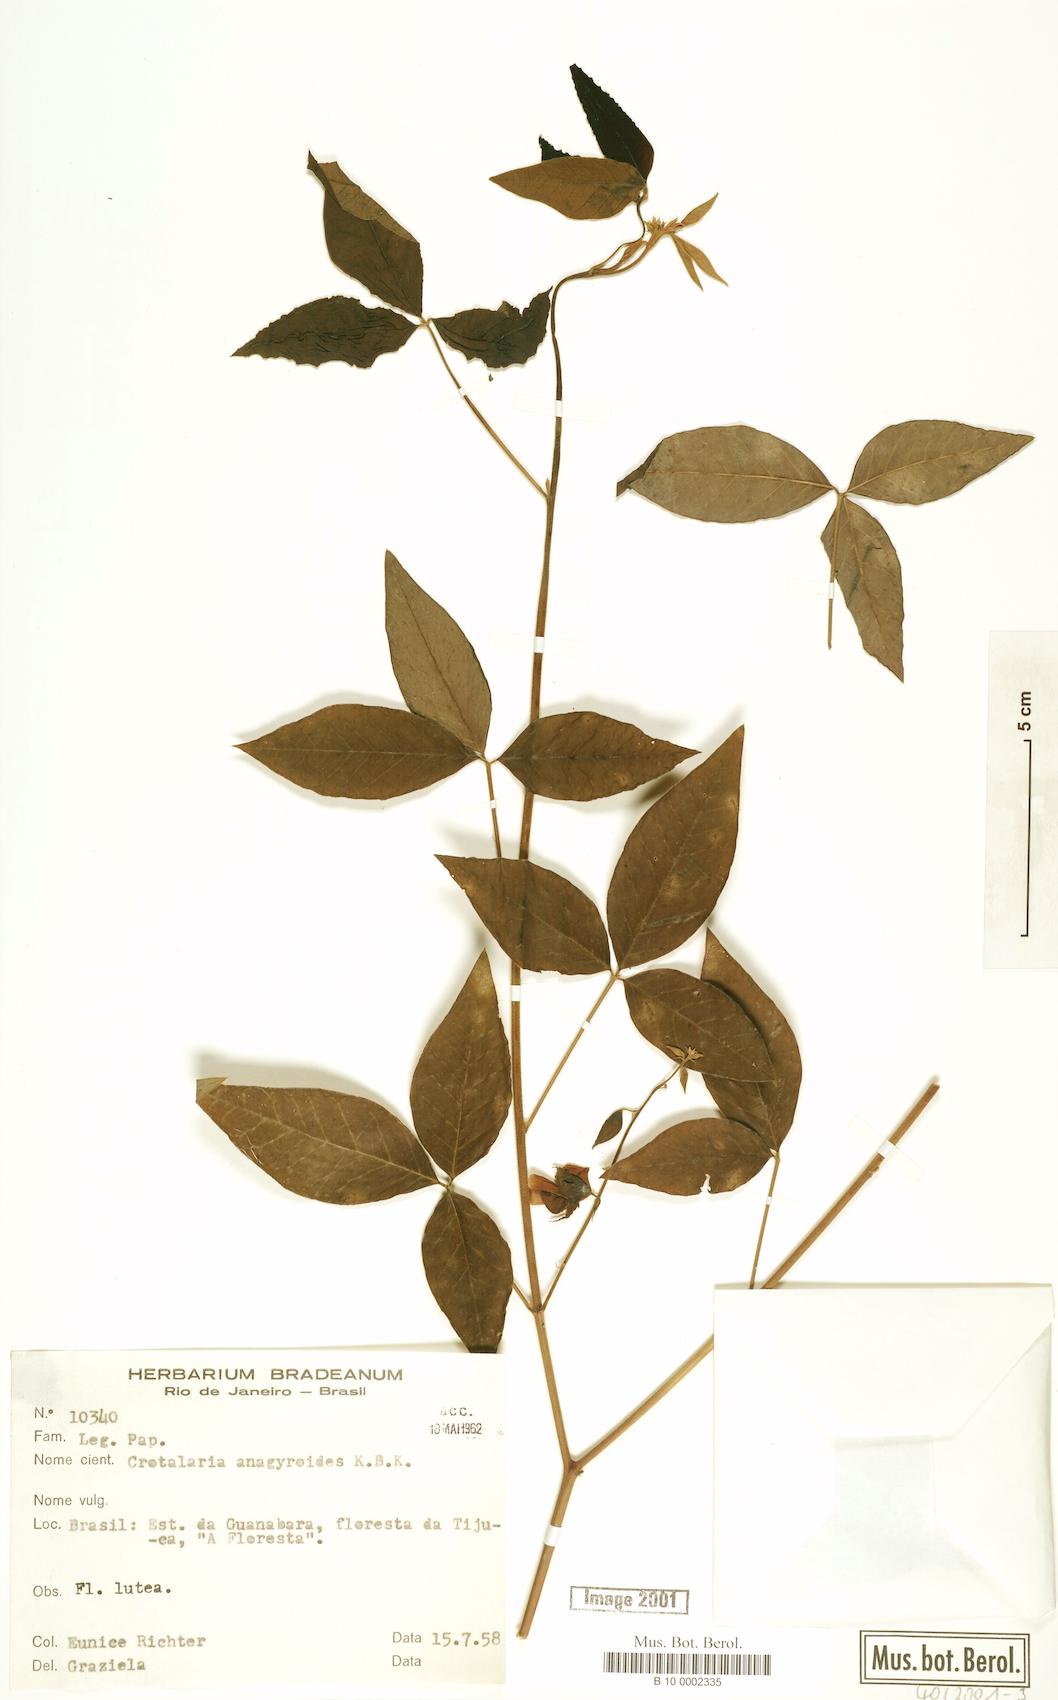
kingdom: Plantae
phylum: Tracheophyta
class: Magnoliopsida
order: Fabales
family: Fabaceae
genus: Crotalaria
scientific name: Crotalaria micans
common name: Caracas rattlebox
